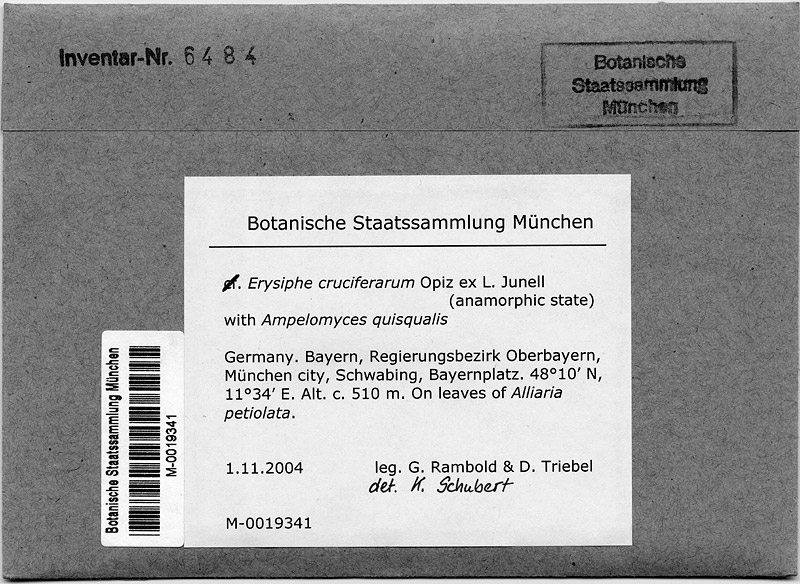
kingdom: Fungi
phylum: Ascomycota
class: Leotiomycetes
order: Helotiales
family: Erysiphaceae
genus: Erysiphe
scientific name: Erysiphe cruciferarum
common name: Brassica powdery mildew
